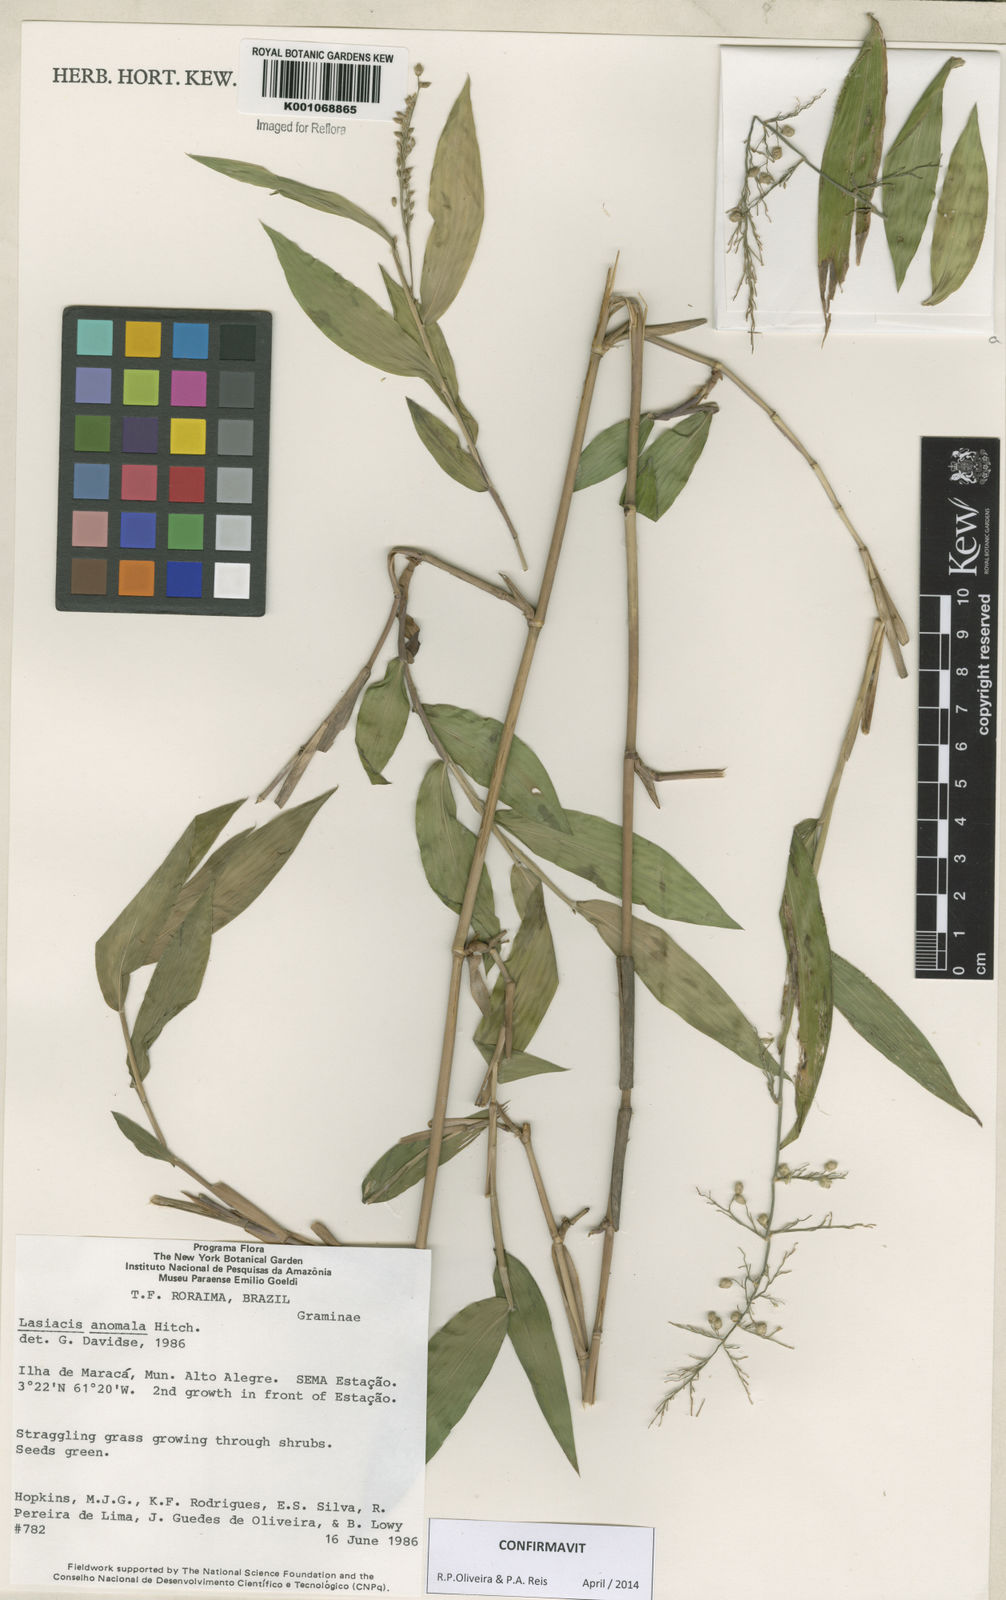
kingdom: Plantae
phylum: Tracheophyta
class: Liliopsida
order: Poales
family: Poaceae
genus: Lasiacis
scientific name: Lasiacis anomala
